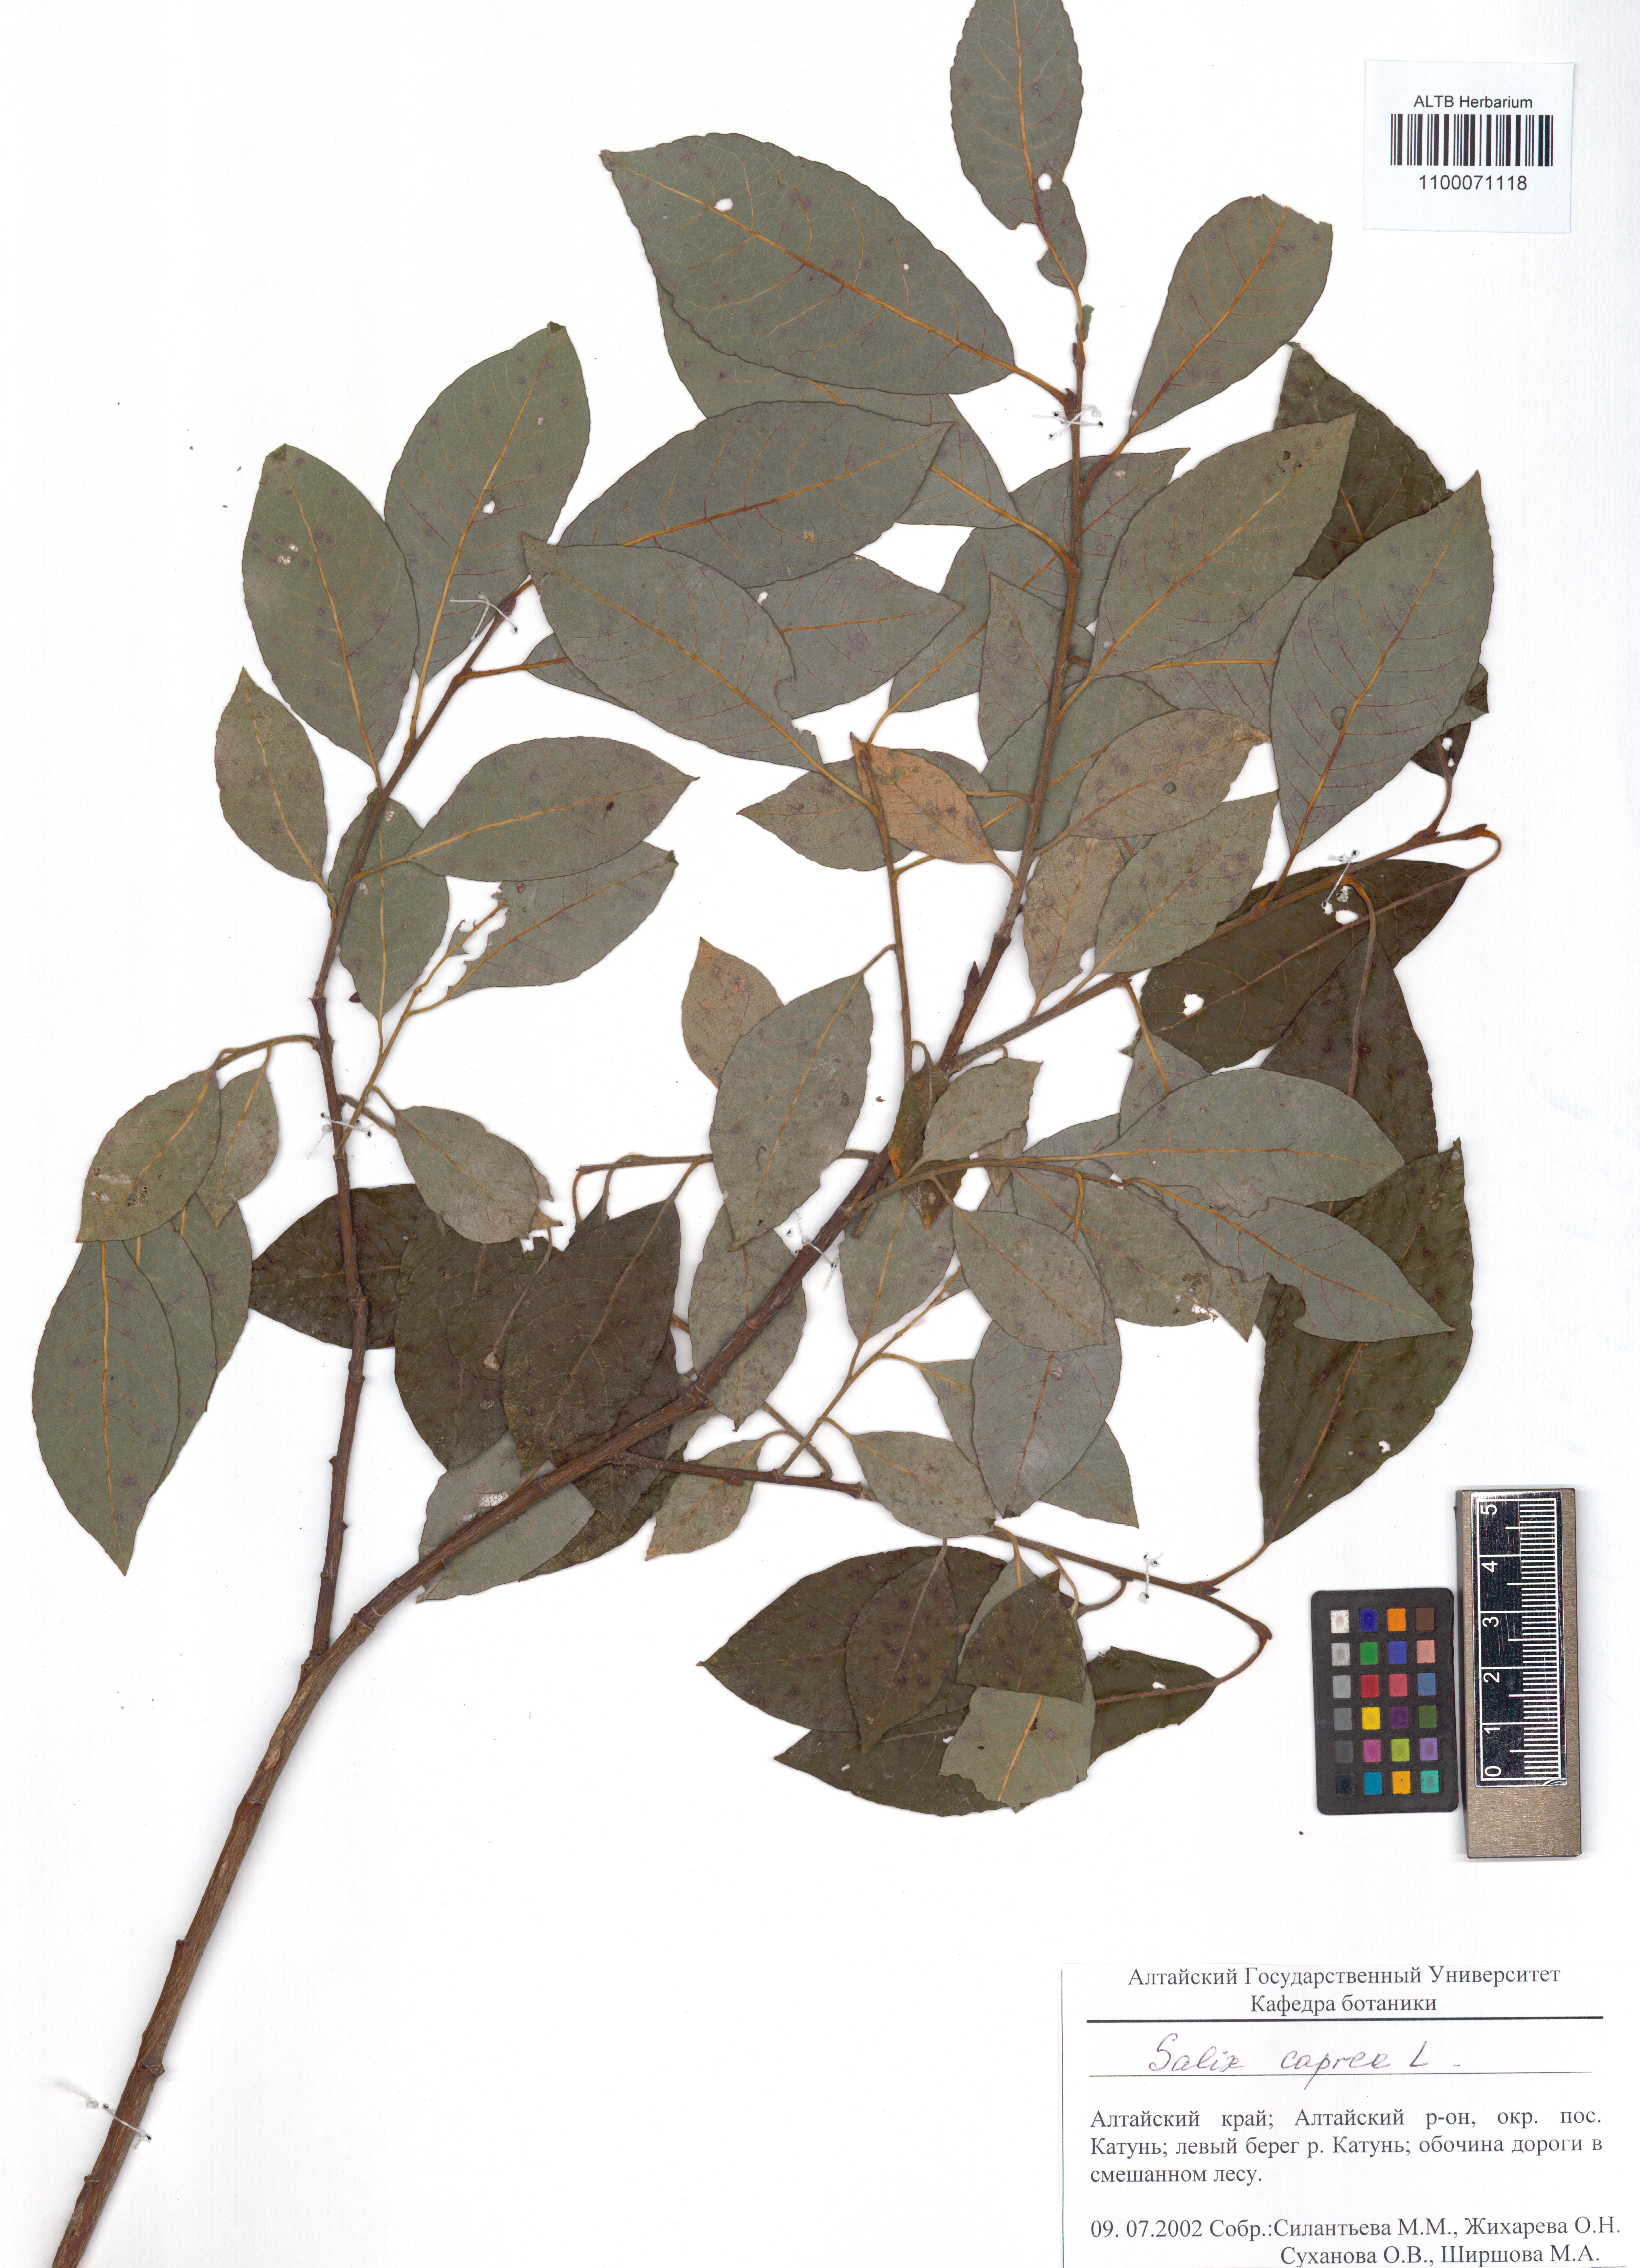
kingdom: Plantae
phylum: Tracheophyta
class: Magnoliopsida
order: Malpighiales
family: Salicaceae
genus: Salix
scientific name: Salix caprea
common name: Goat willow
